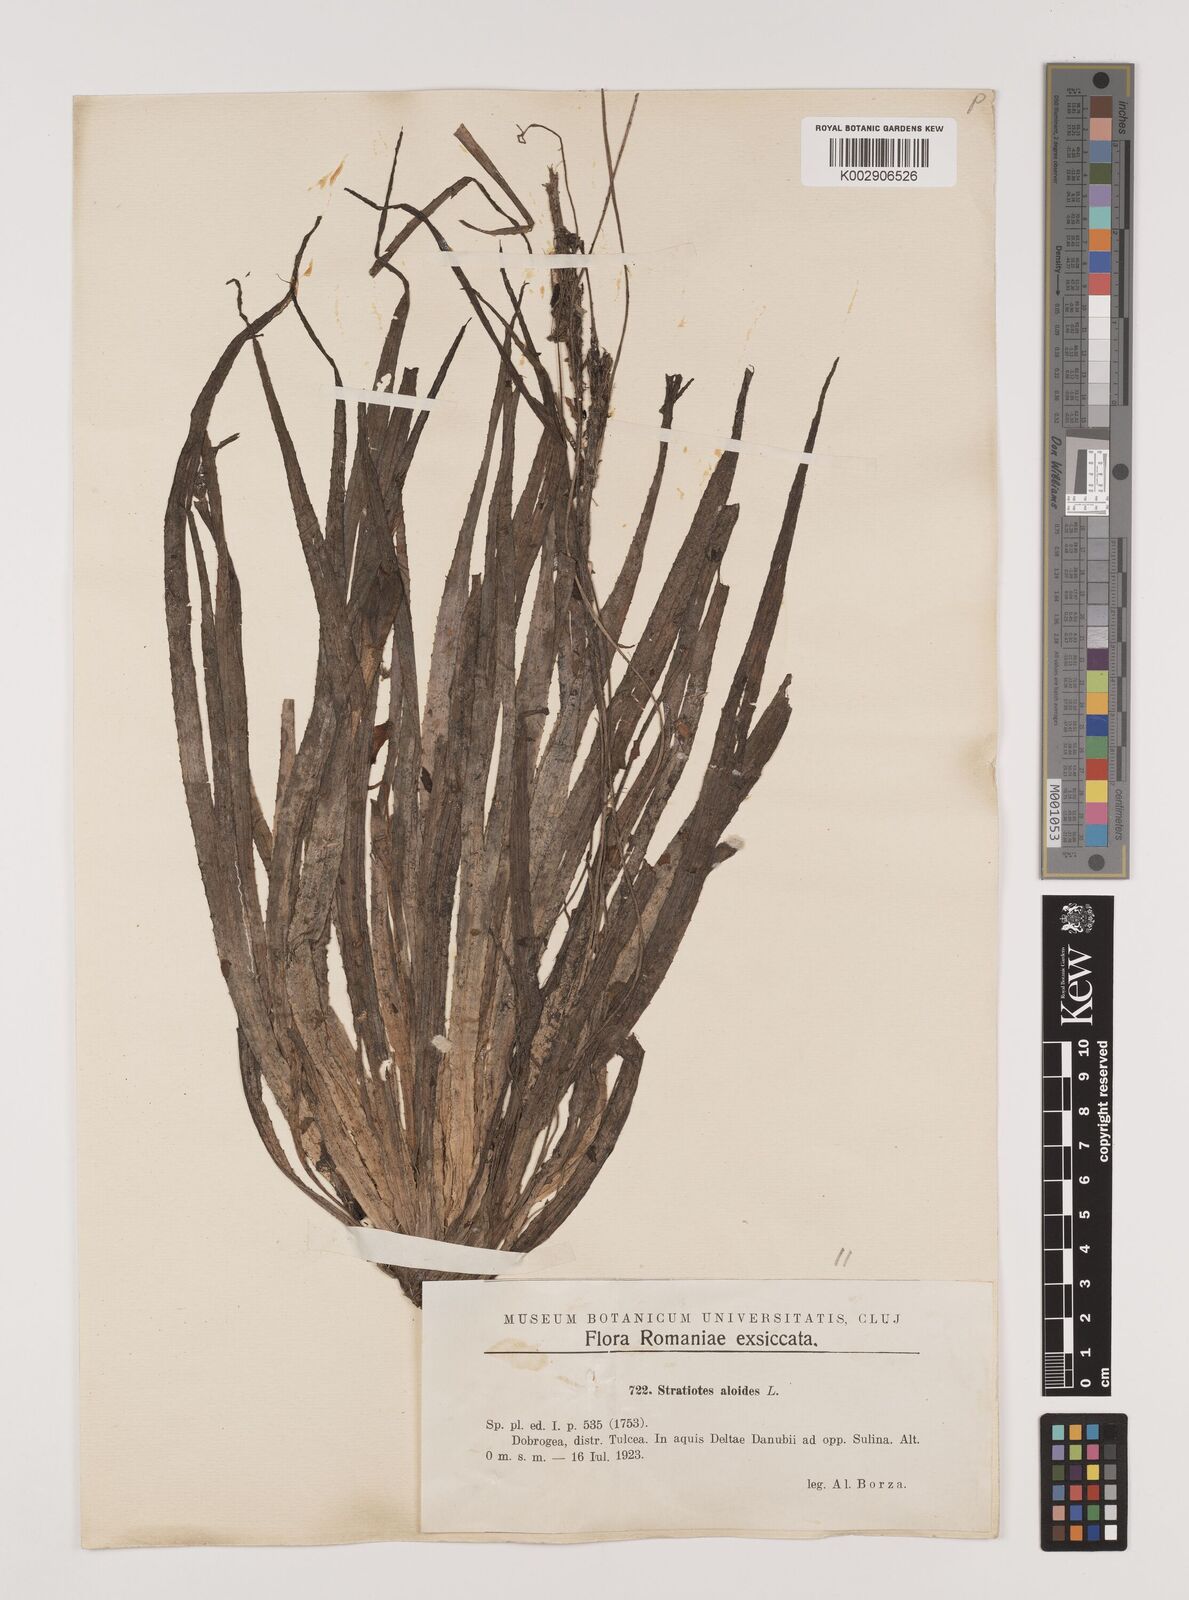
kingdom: Plantae
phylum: Tracheophyta
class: Liliopsida
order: Alismatales
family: Hydrocharitaceae
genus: Stratiotes
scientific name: Stratiotes aloides
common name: Water-soldier
